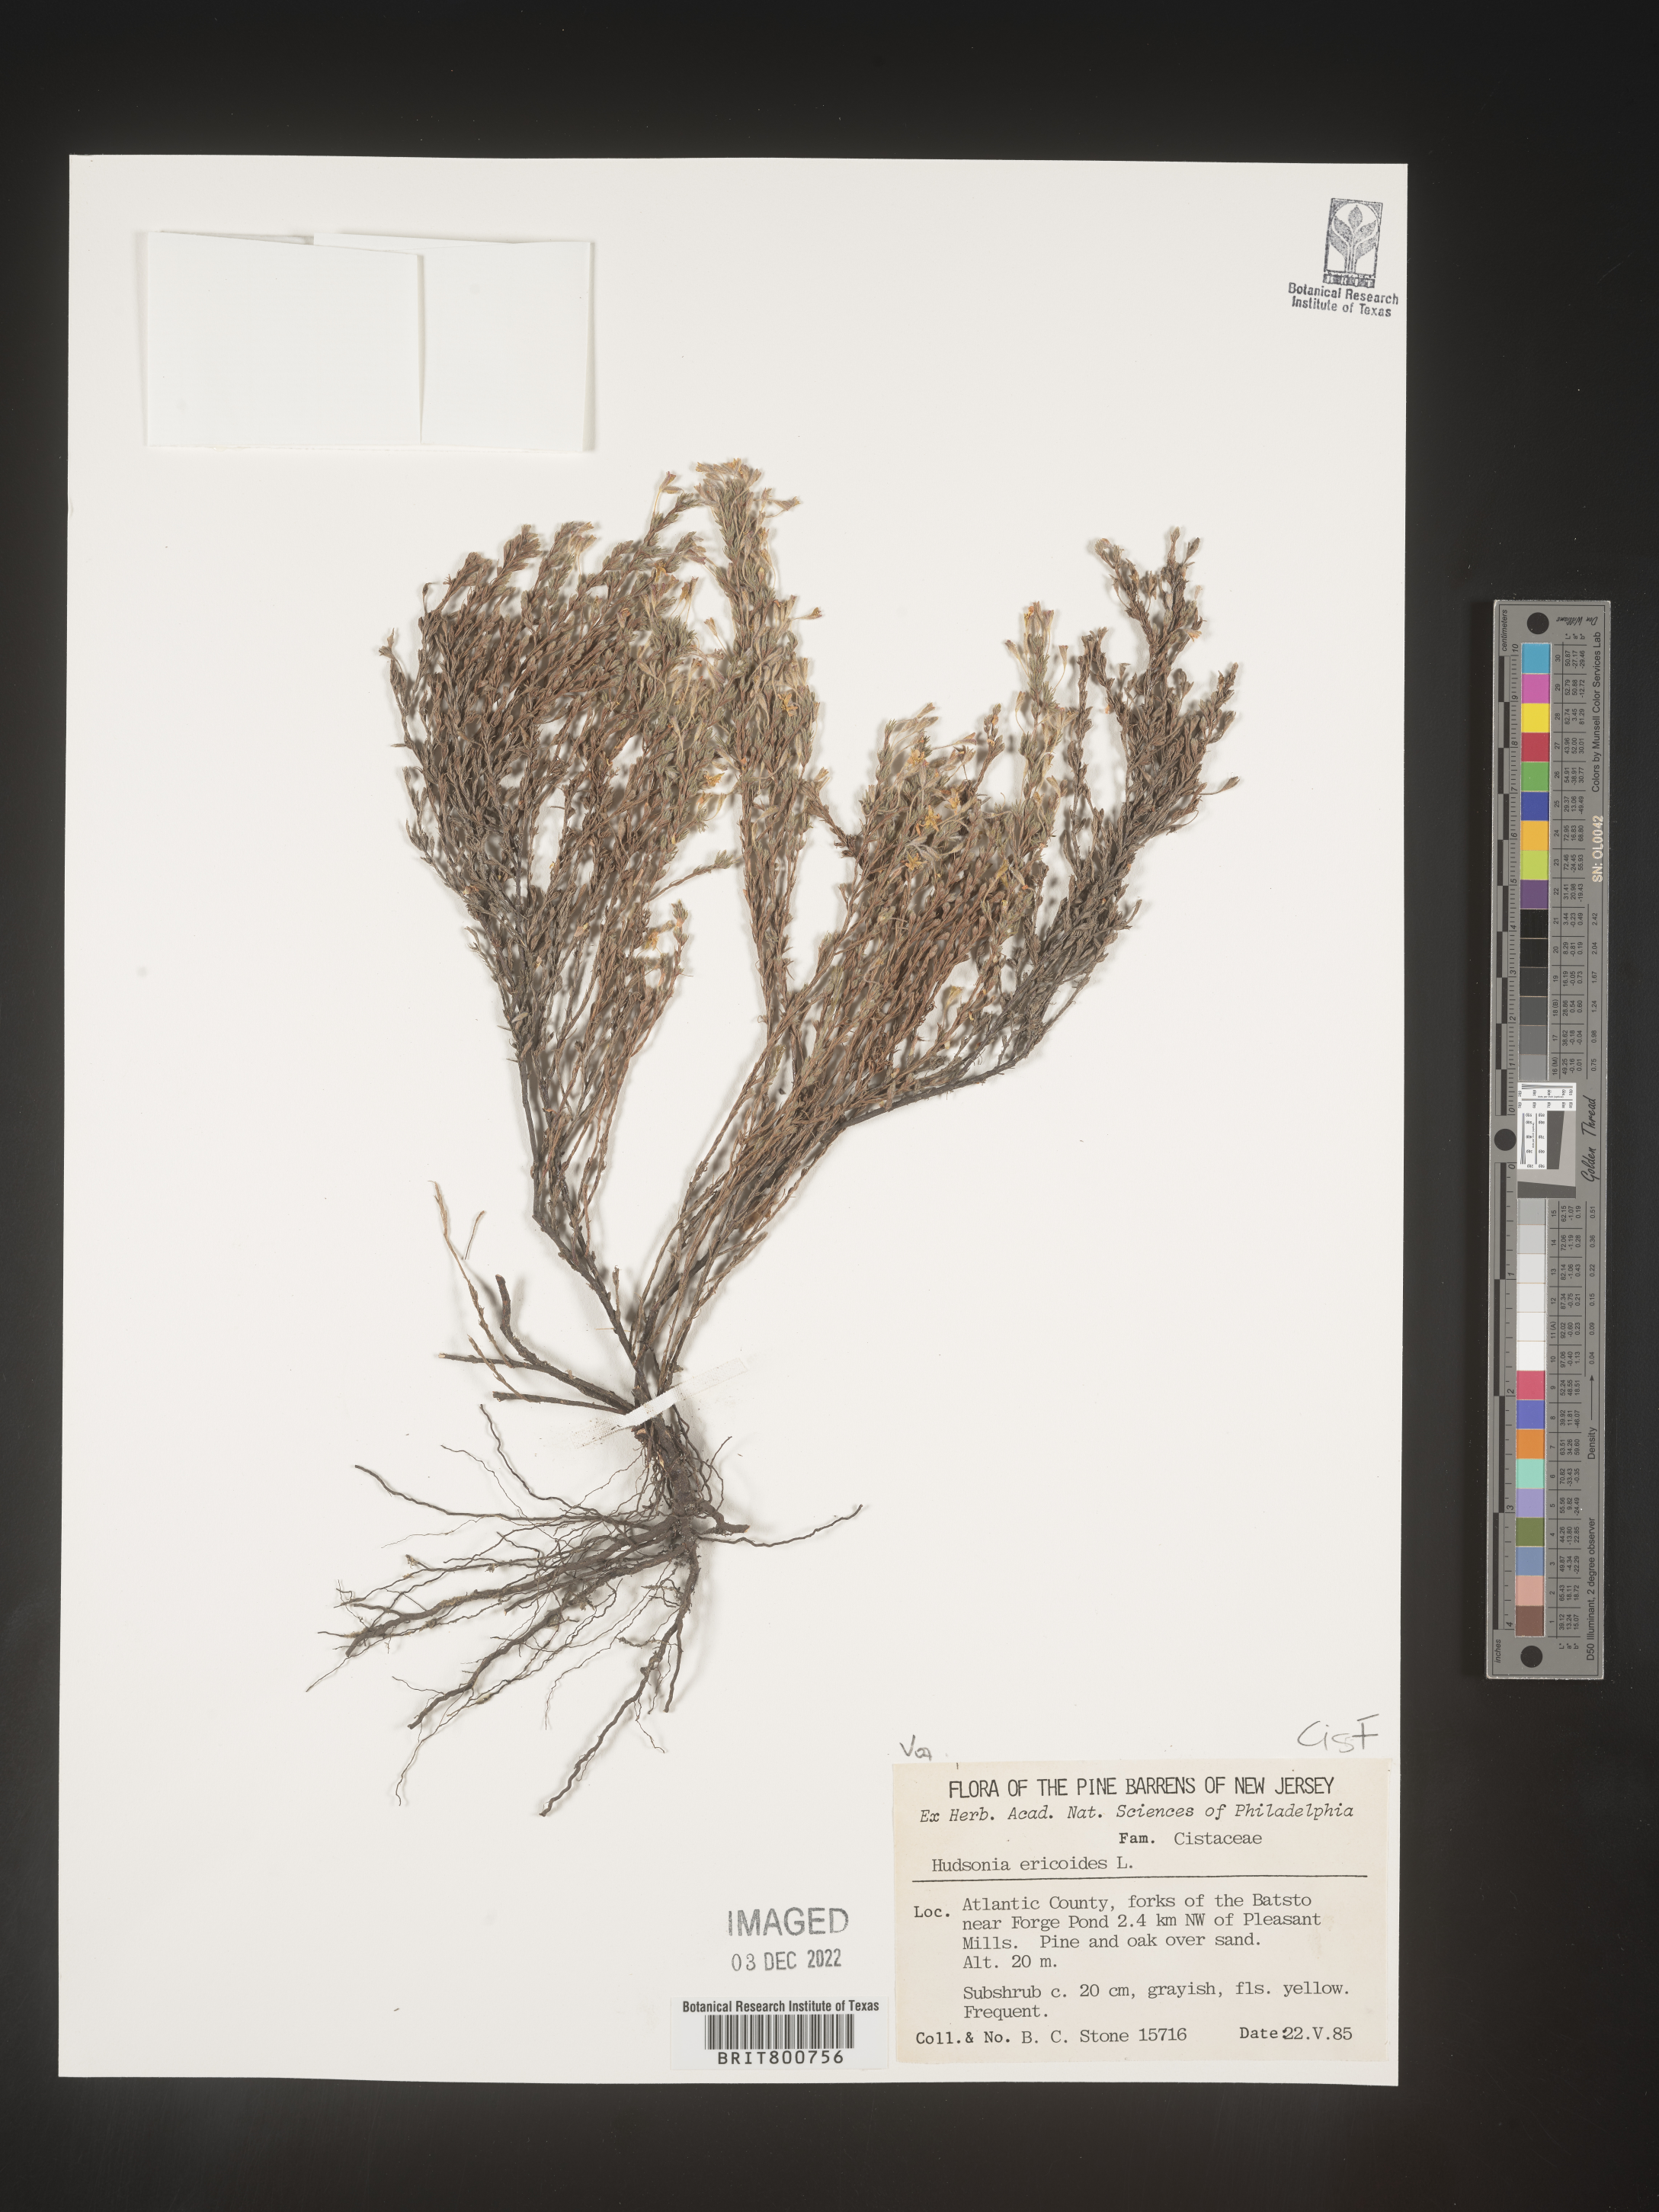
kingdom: Plantae
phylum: Tracheophyta
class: Magnoliopsida
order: Malvales
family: Cistaceae
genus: Hudsonia
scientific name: Hudsonia ericoides
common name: Golden-heather
